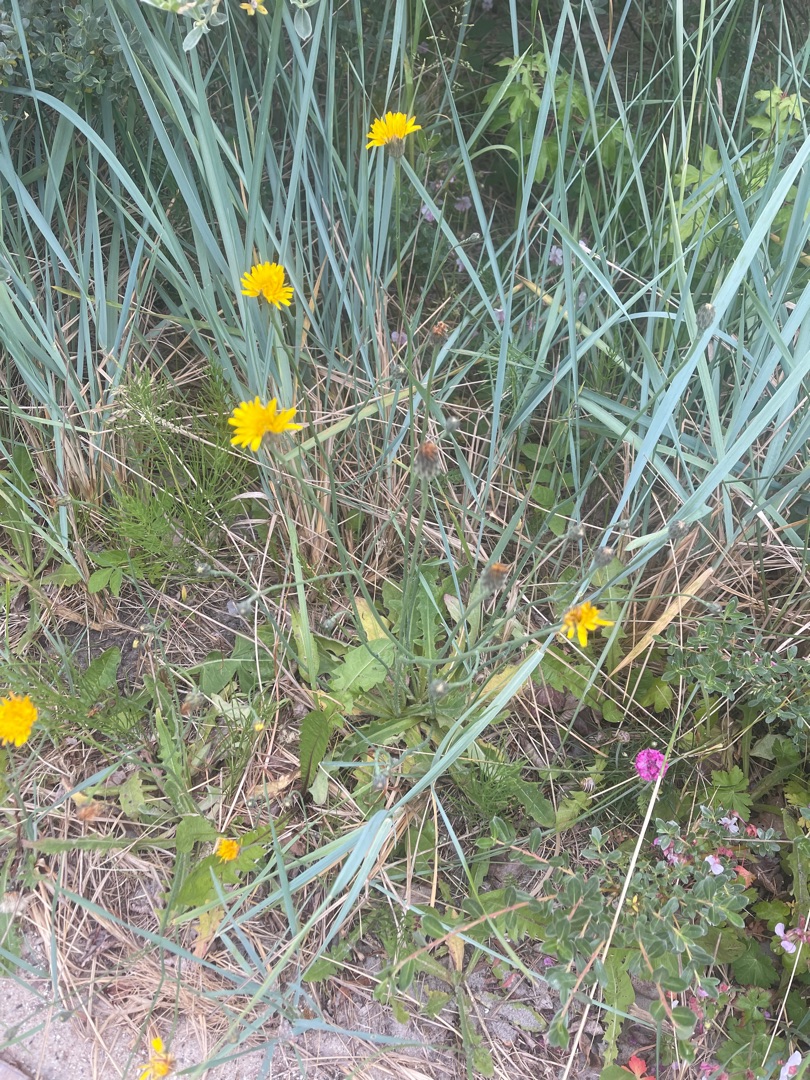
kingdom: Plantae
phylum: Tracheophyta
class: Magnoliopsida
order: Asterales
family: Asteraceae
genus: Hypochaeris
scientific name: Hypochaeris radicata
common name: Almindelig kongepen
